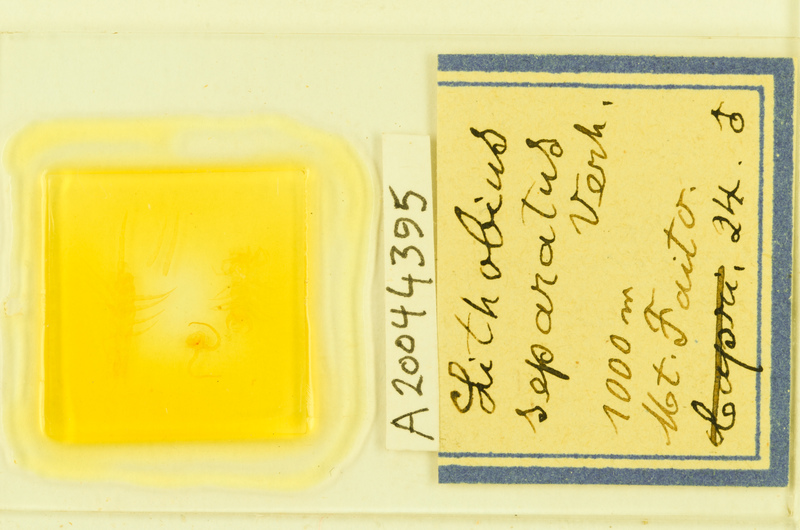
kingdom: Animalia
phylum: Arthropoda
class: Chilopoda
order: Lithobiomorpha
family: Lithobiidae
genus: Lithobius
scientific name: Lithobius separatus
